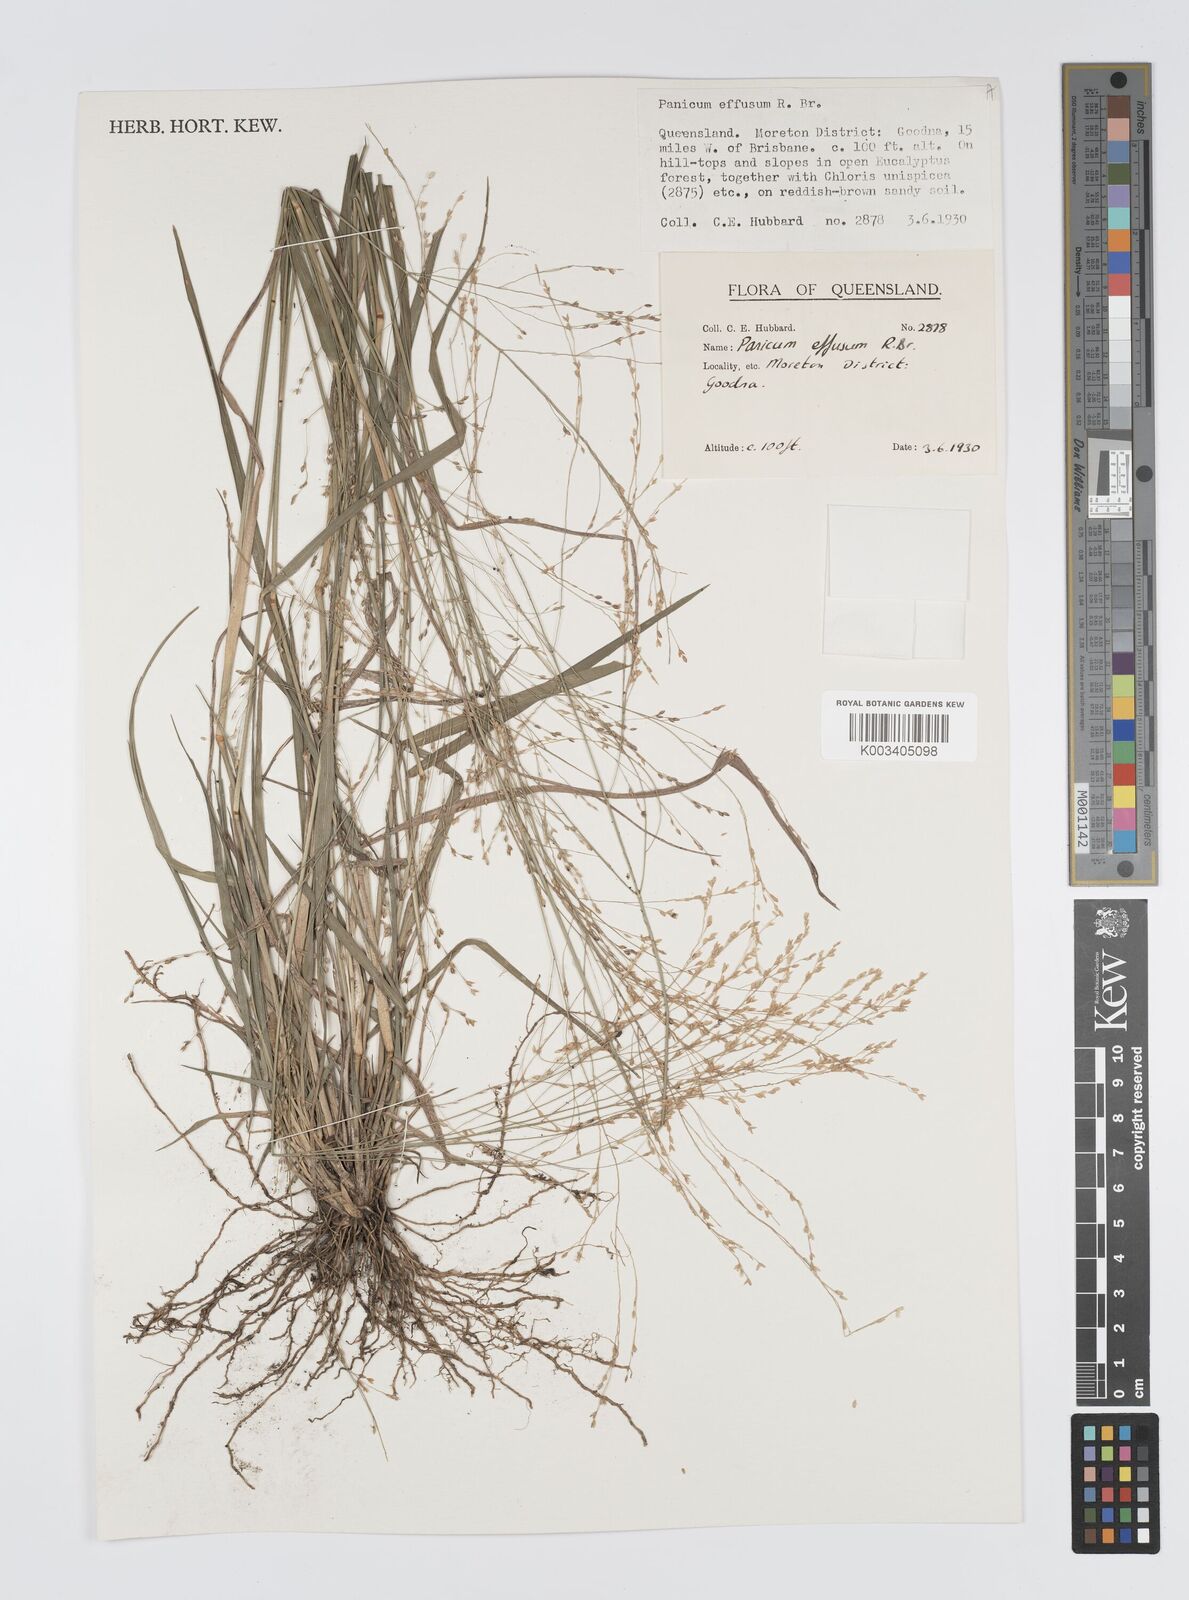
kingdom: Plantae
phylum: Tracheophyta
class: Liliopsida
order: Poales
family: Poaceae
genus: Panicum
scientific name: Panicum effusum
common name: Hairy panic grass
